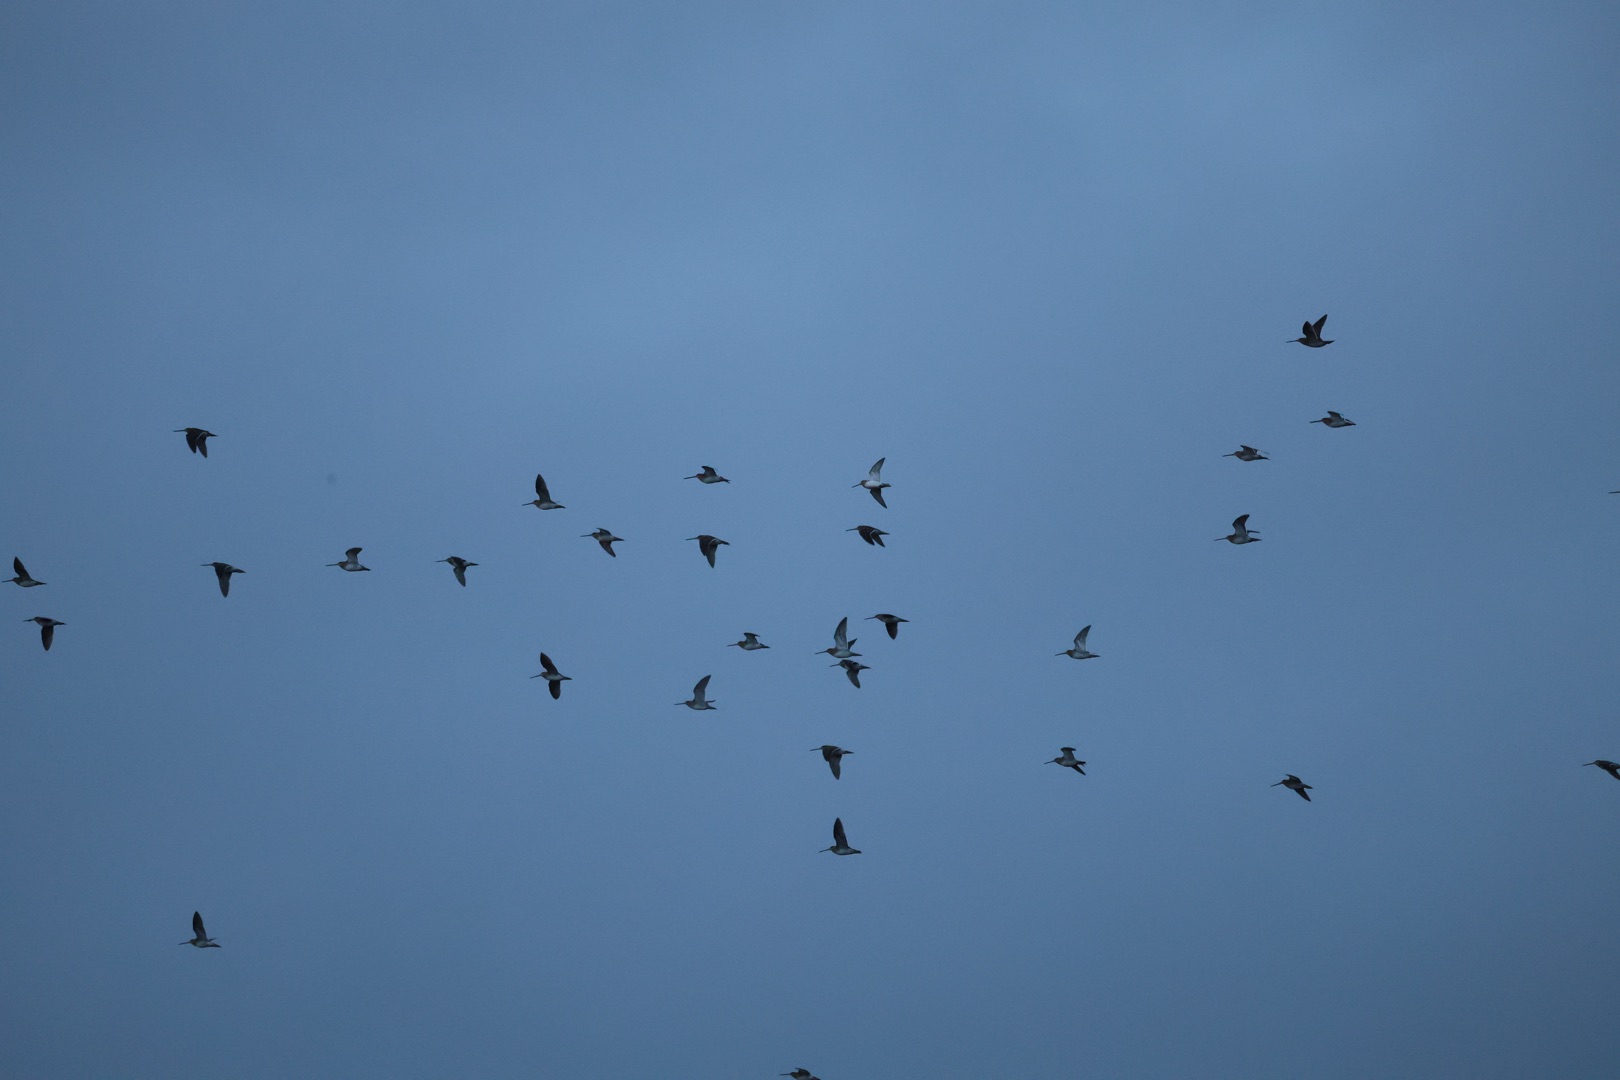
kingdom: Animalia
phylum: Chordata
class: Aves
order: Charadriiformes
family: Scolopacidae
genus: Gallinago
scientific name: Gallinago gallinago
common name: Dobbeltbekkasin
